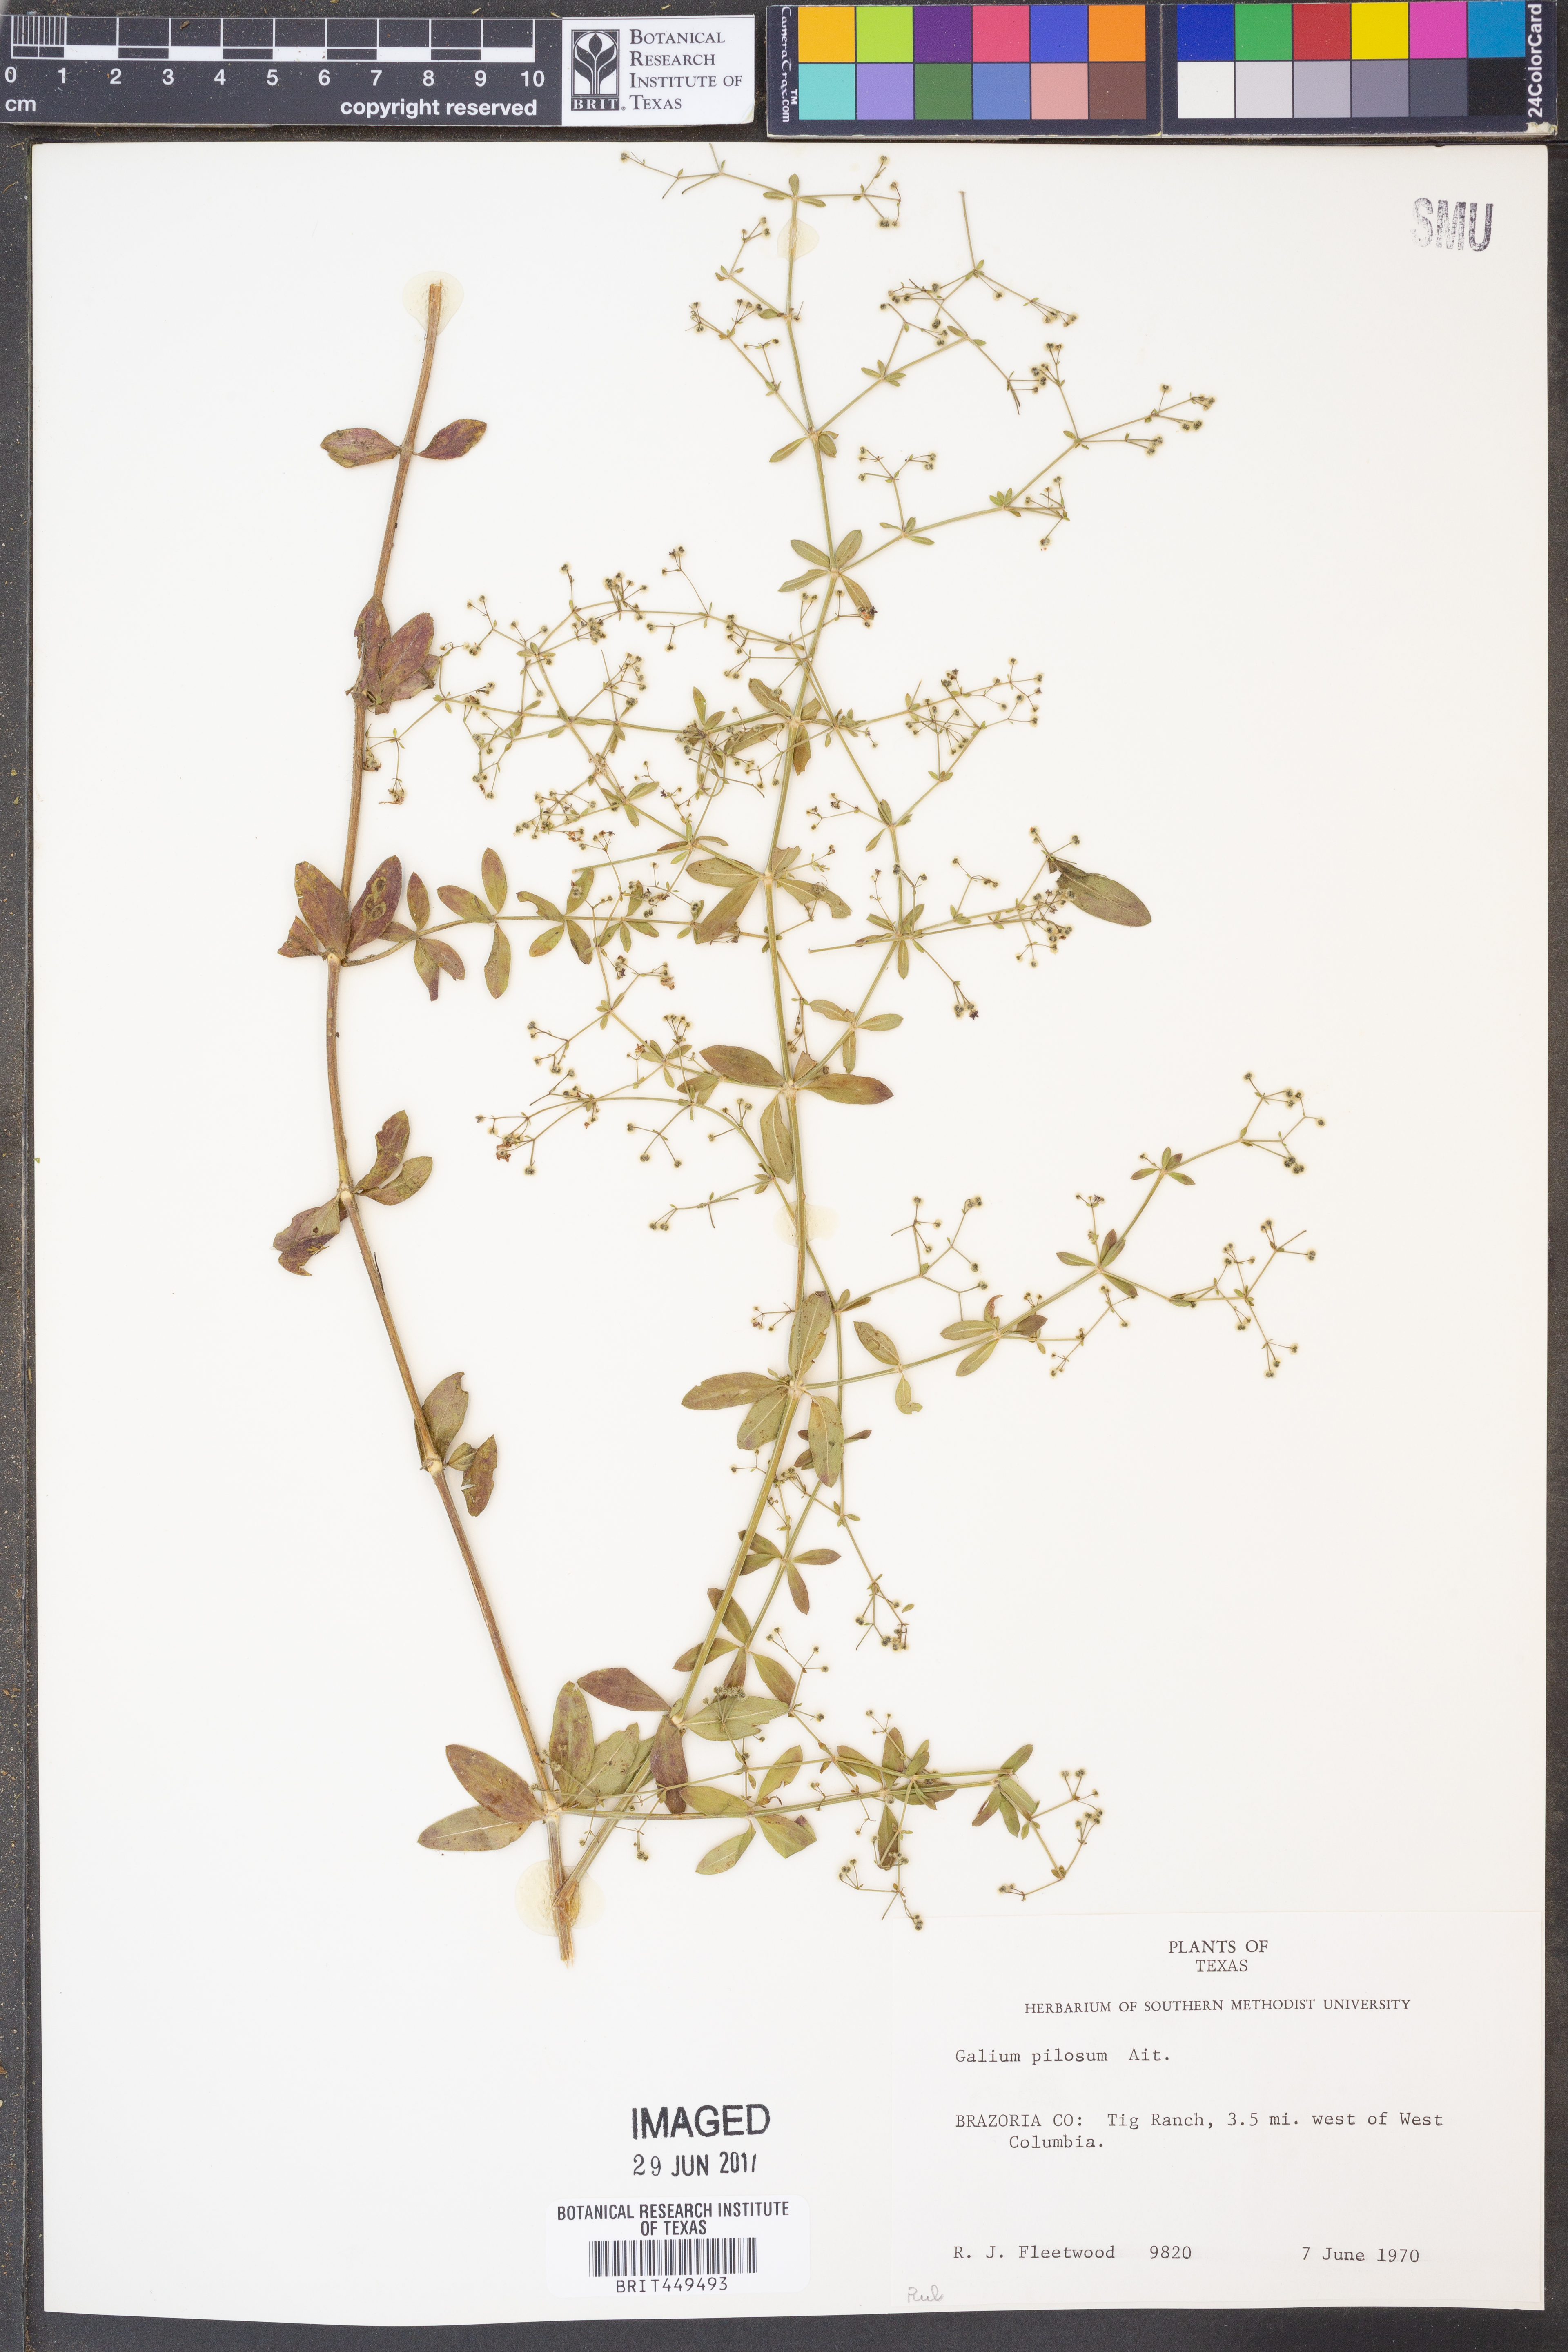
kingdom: Plantae
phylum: Tracheophyta
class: Magnoliopsida
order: Gentianales
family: Rubiaceae
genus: Galium
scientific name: Galium pilosum
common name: Hairy bedstraw
